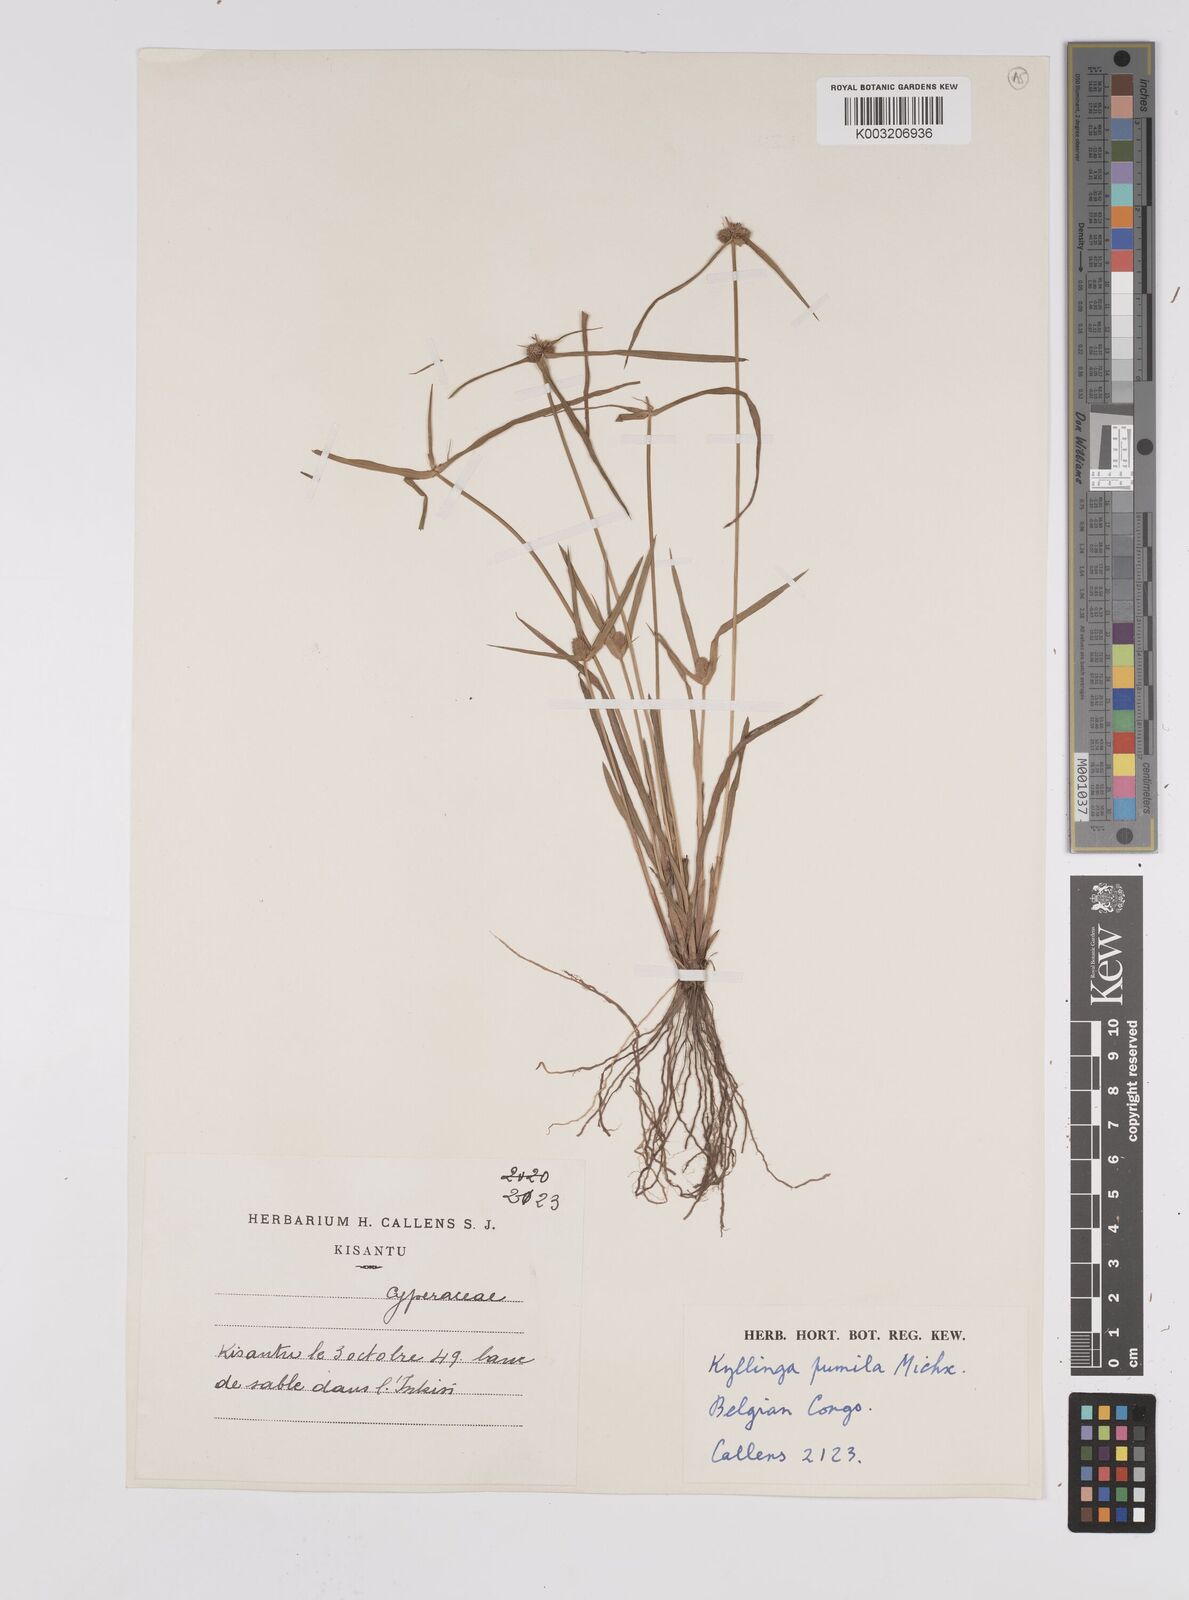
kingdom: Plantae
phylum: Tracheophyta
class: Liliopsida
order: Poales
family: Cyperaceae
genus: Cyperus
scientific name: Cyperus hortensis
